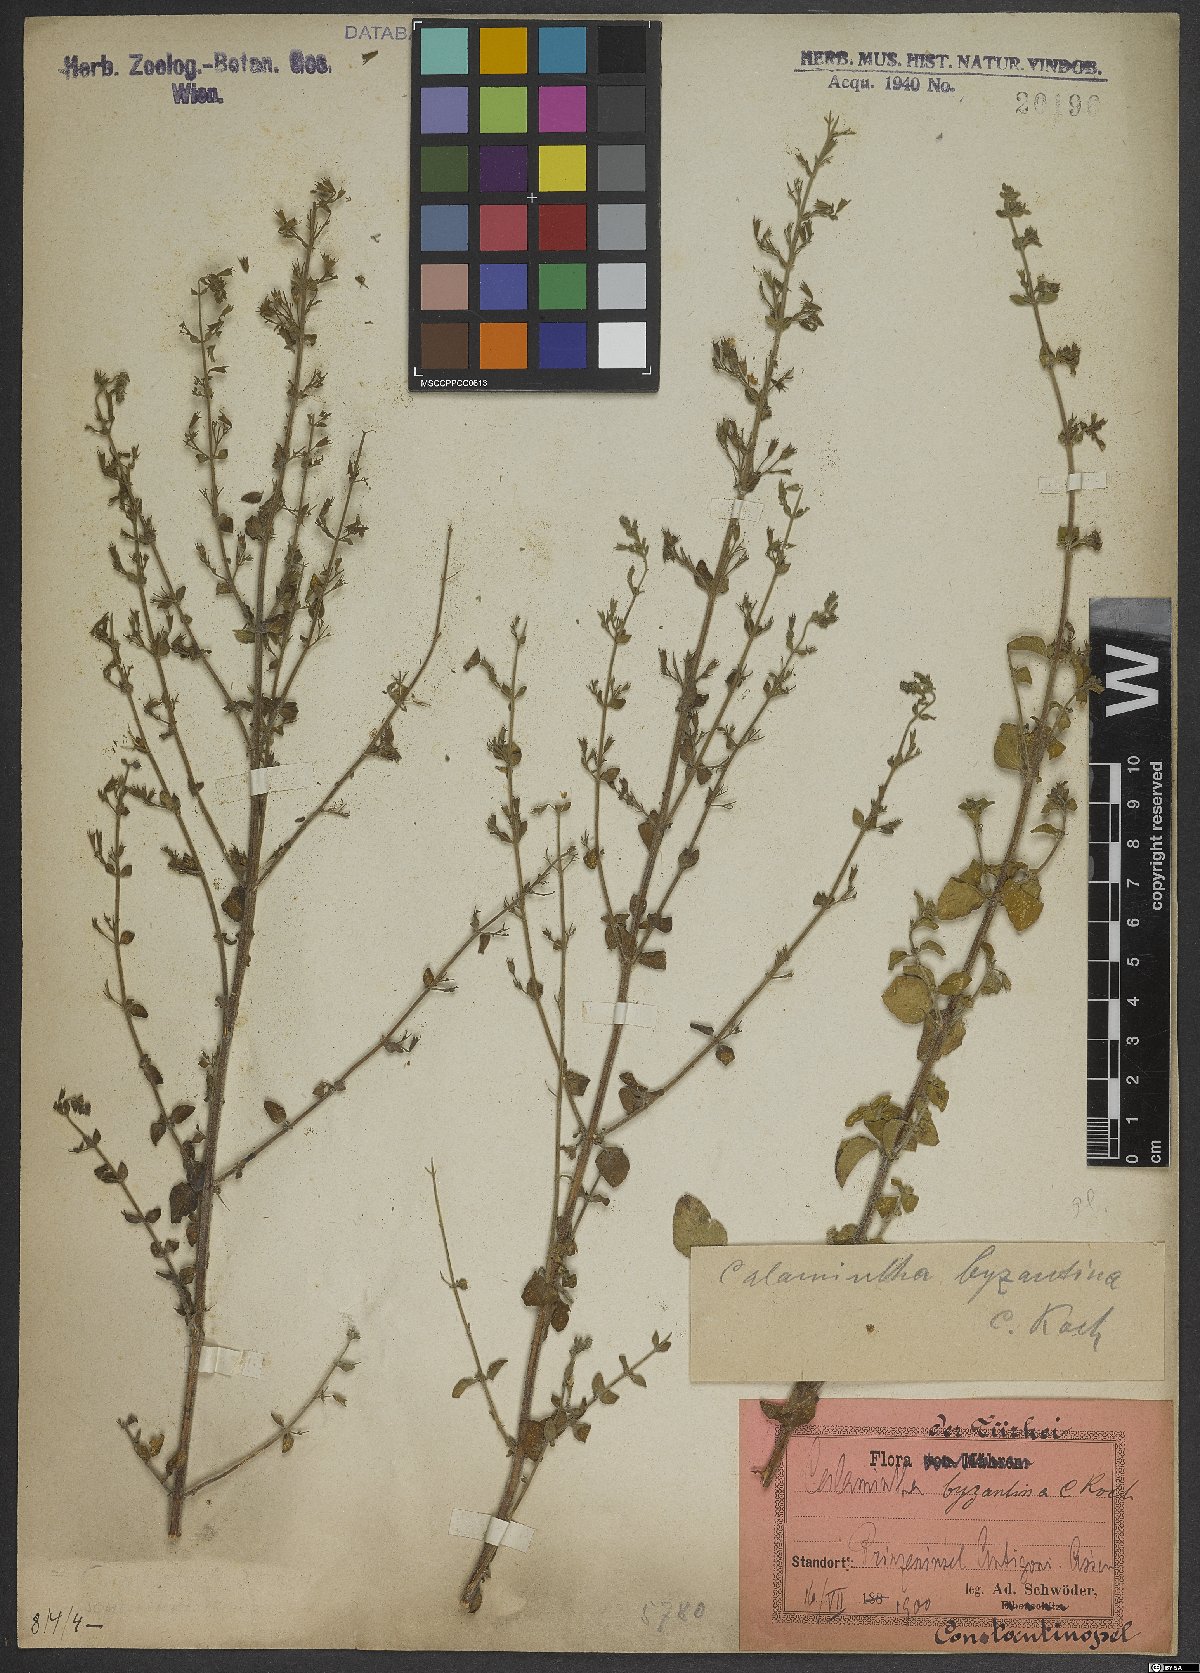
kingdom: Plantae
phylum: Tracheophyta
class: Magnoliopsida
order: Lamiales
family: Lamiaceae
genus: Clinopodium
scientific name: Clinopodium nepeta
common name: Lesser calamint
